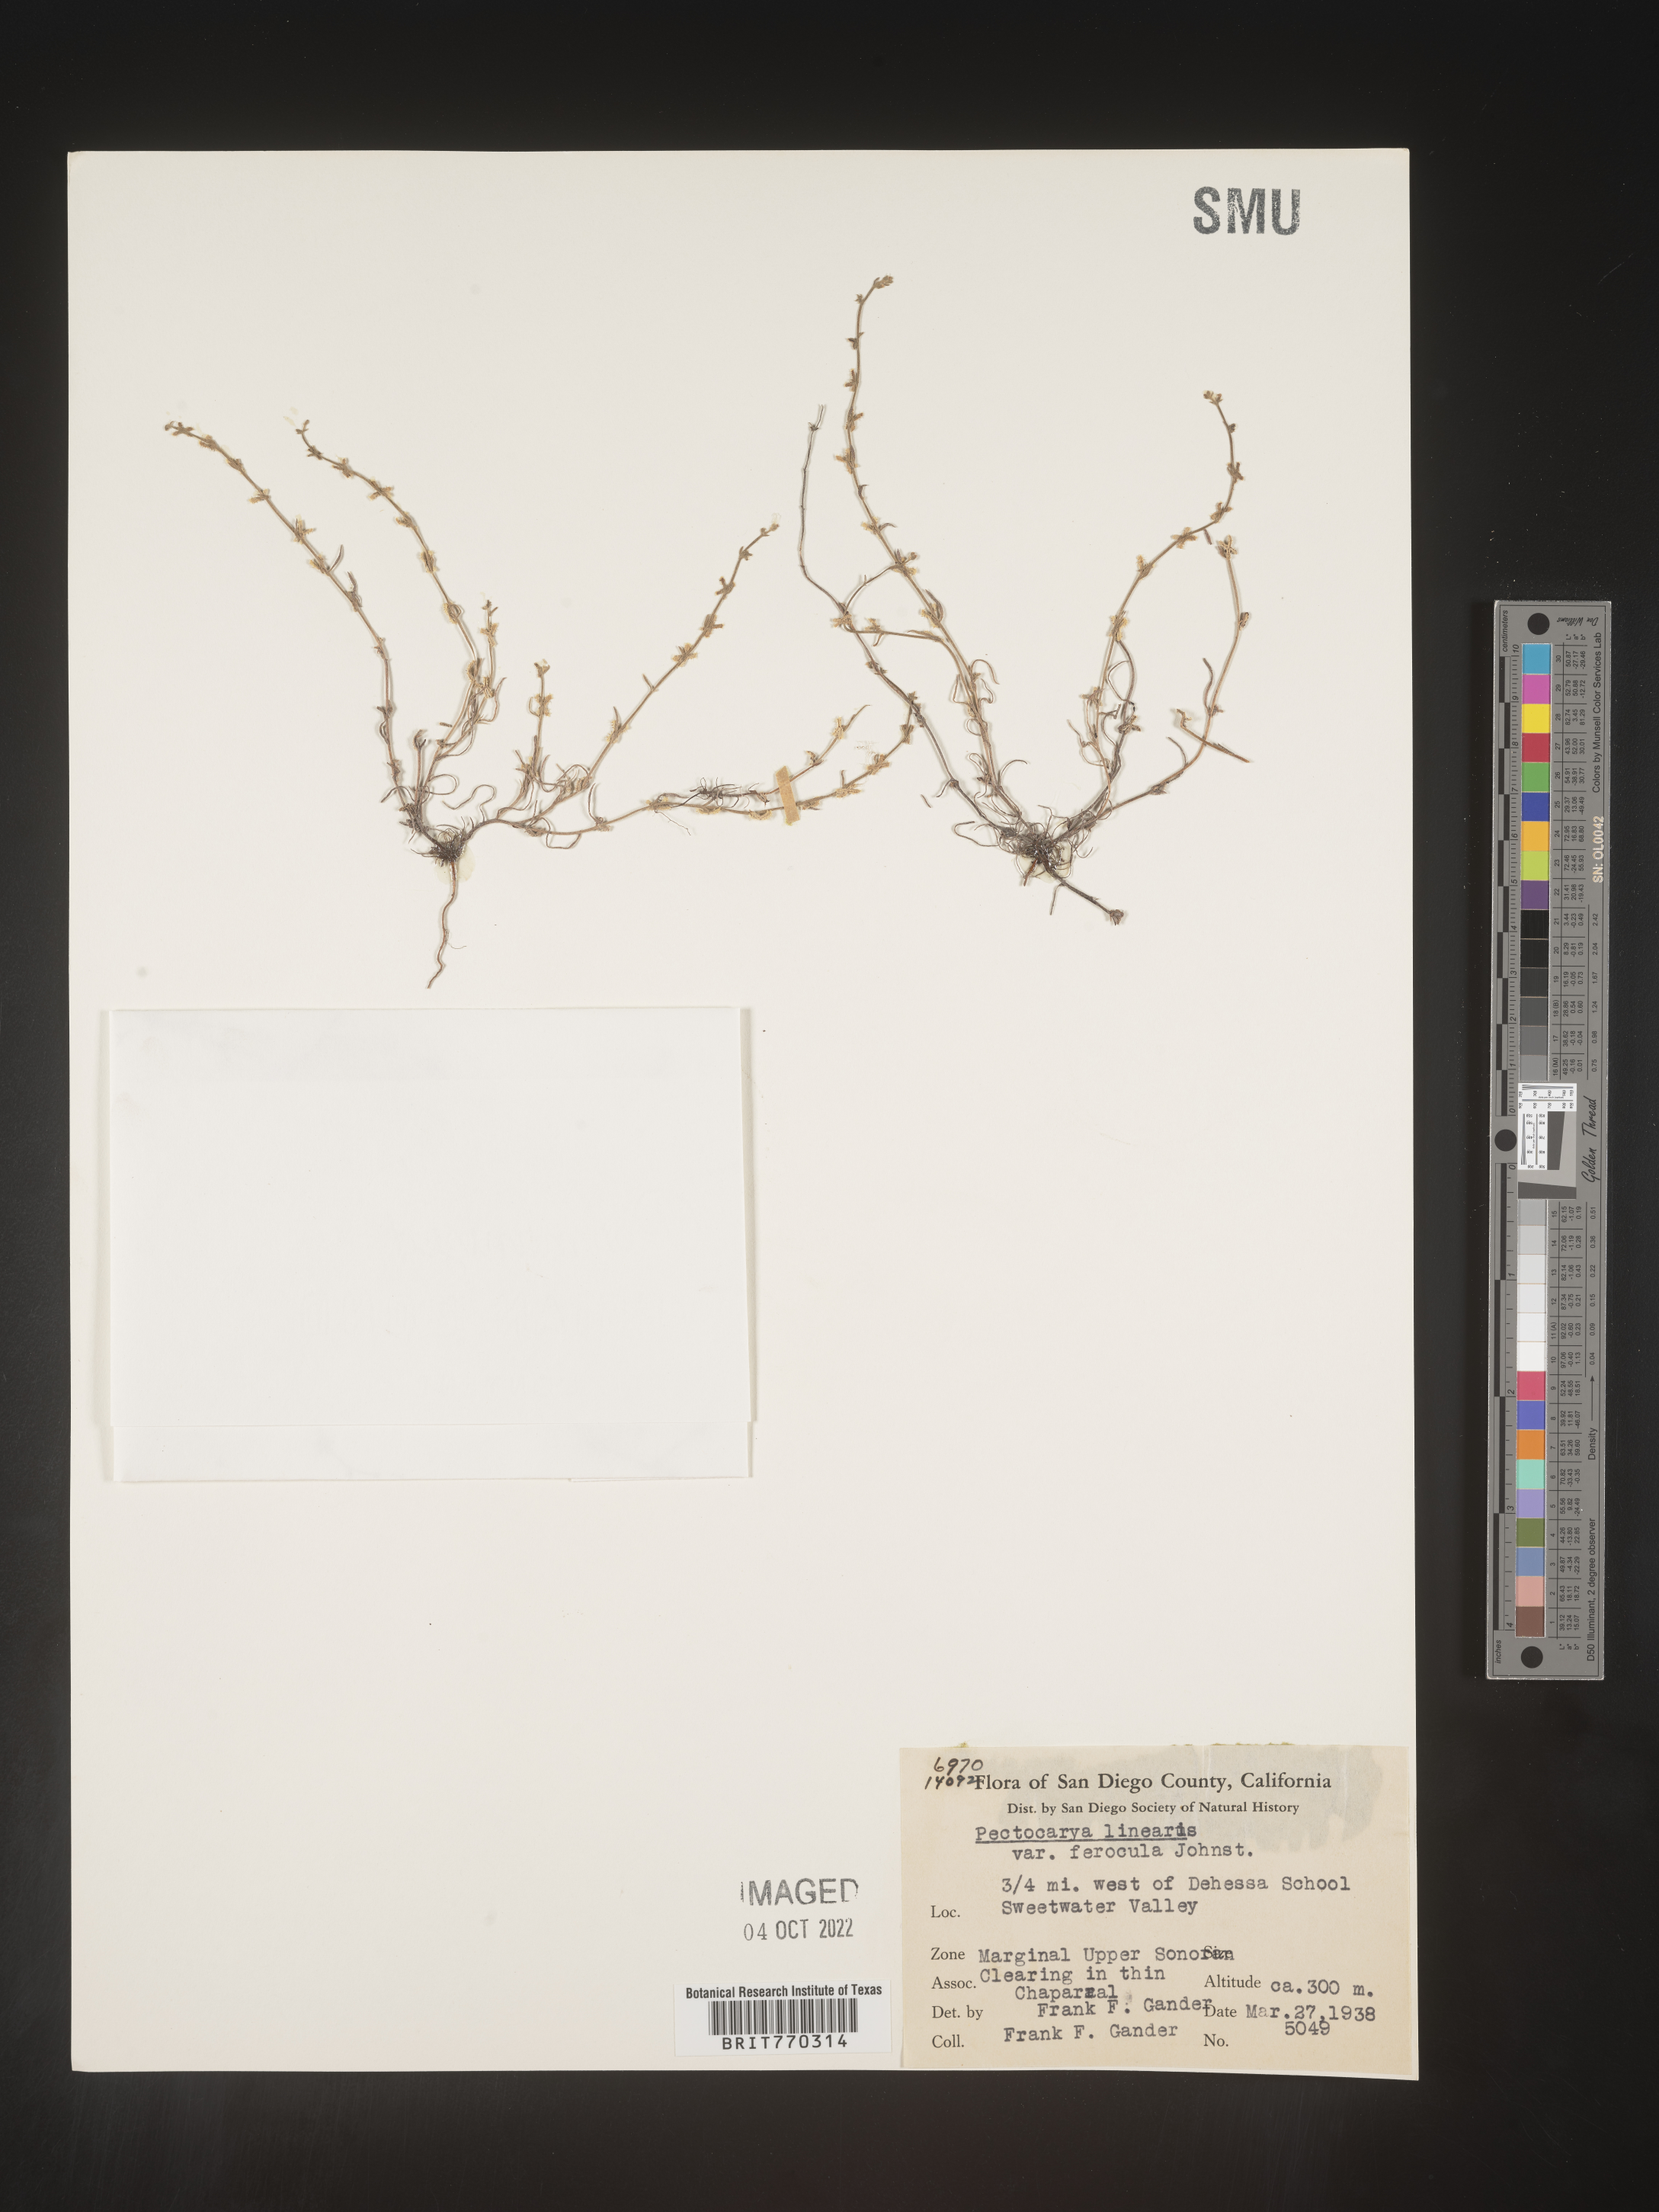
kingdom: Plantae
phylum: Tracheophyta
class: Magnoliopsida
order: Boraginales
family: Boraginaceae
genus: Pectocarya
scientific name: Pectocarya
